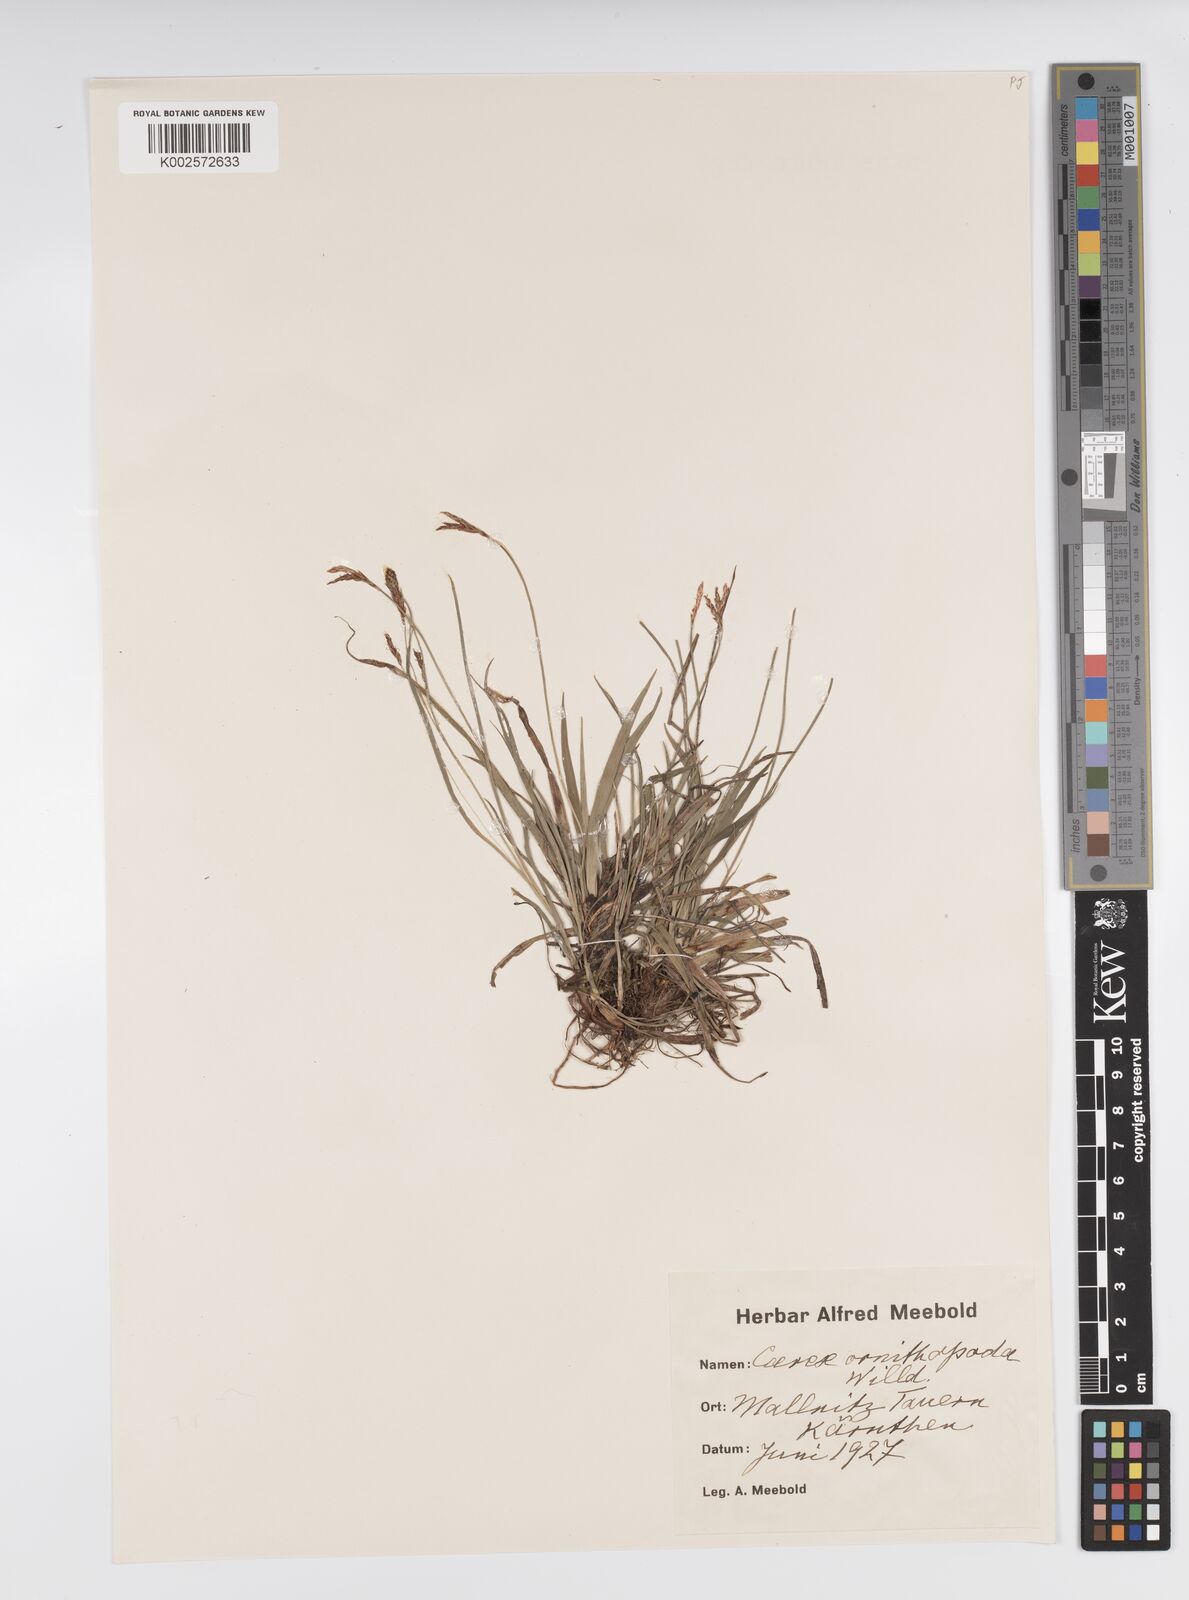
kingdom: Plantae
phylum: Tracheophyta
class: Liliopsida
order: Poales
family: Cyperaceae
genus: Carex
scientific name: Carex ornithopoda
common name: Bird's-foot sedge
